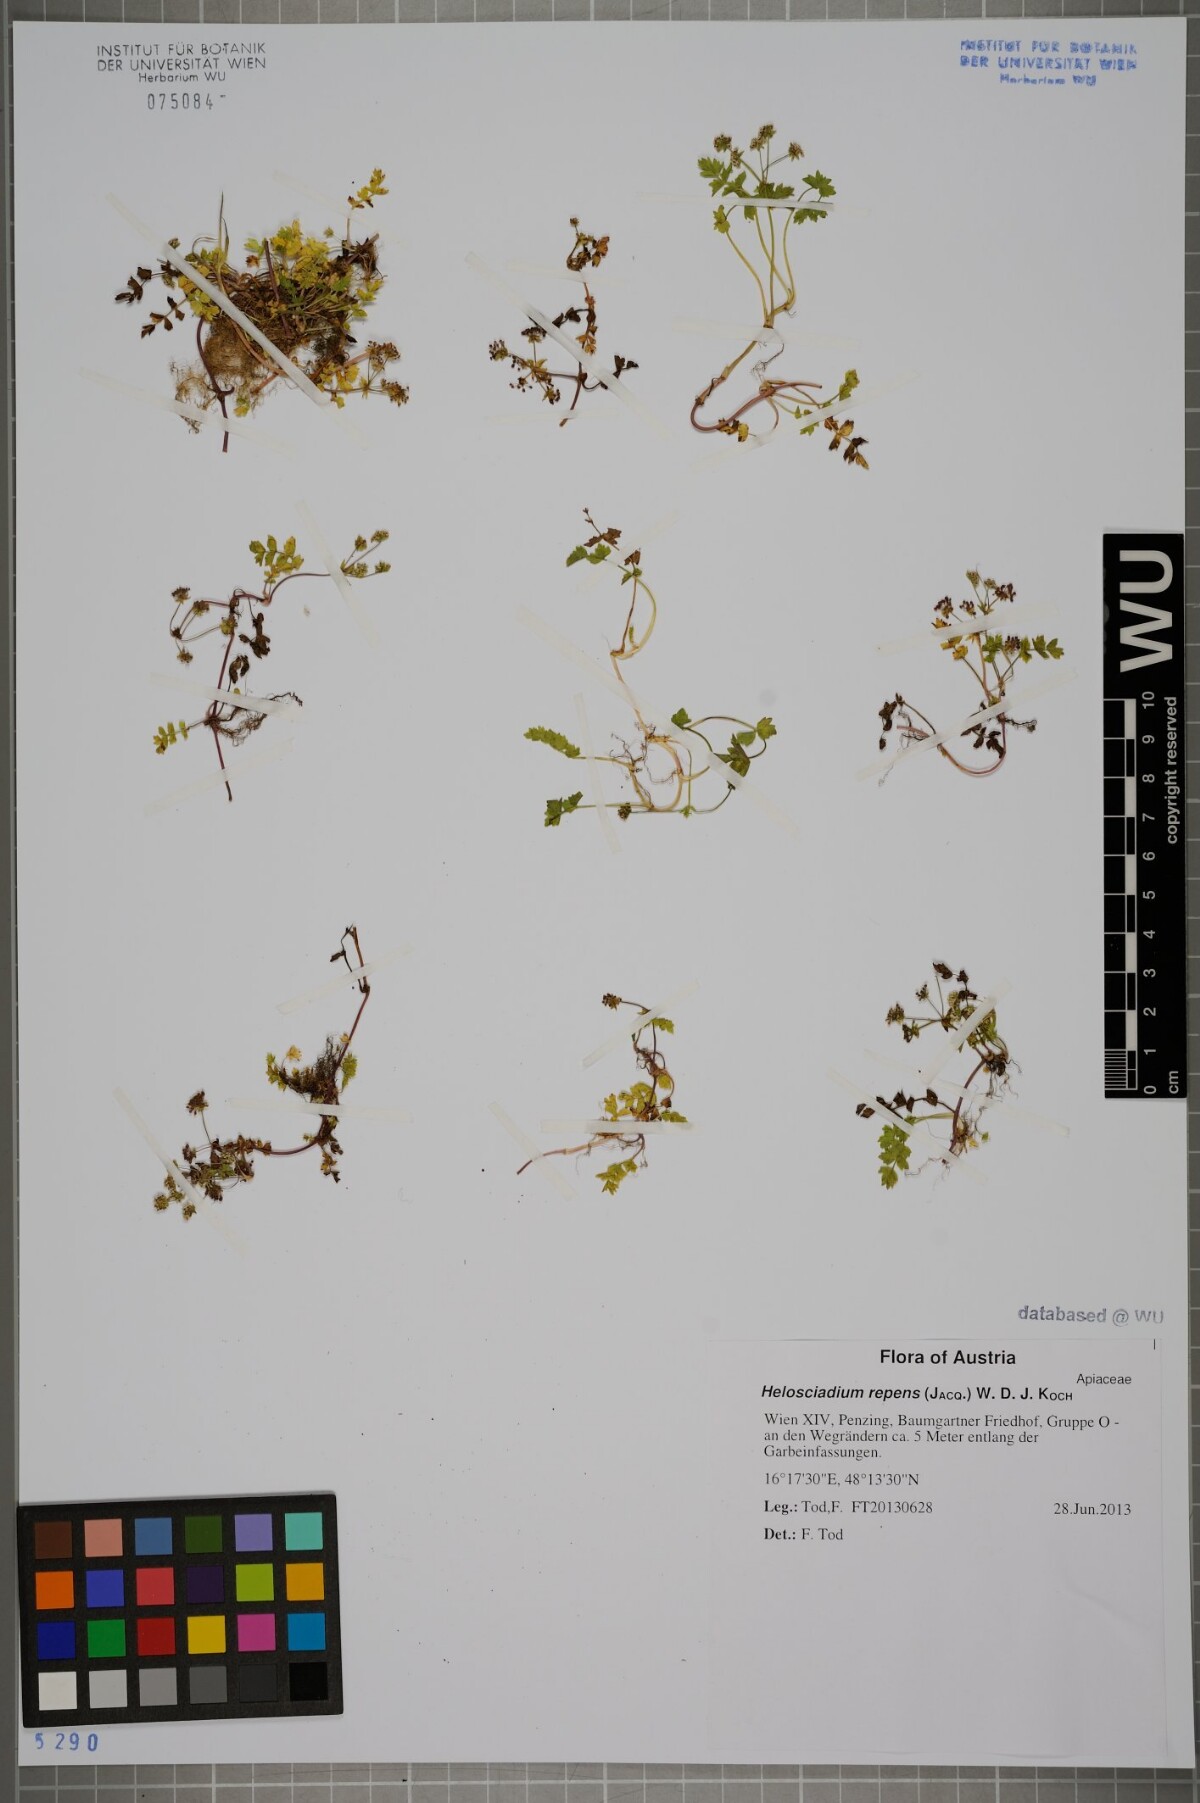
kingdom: Plantae
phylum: Tracheophyta
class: Magnoliopsida
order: Apiales
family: Apiaceae
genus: Helosciadium
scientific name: Helosciadium repens
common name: Creeping marshwort
